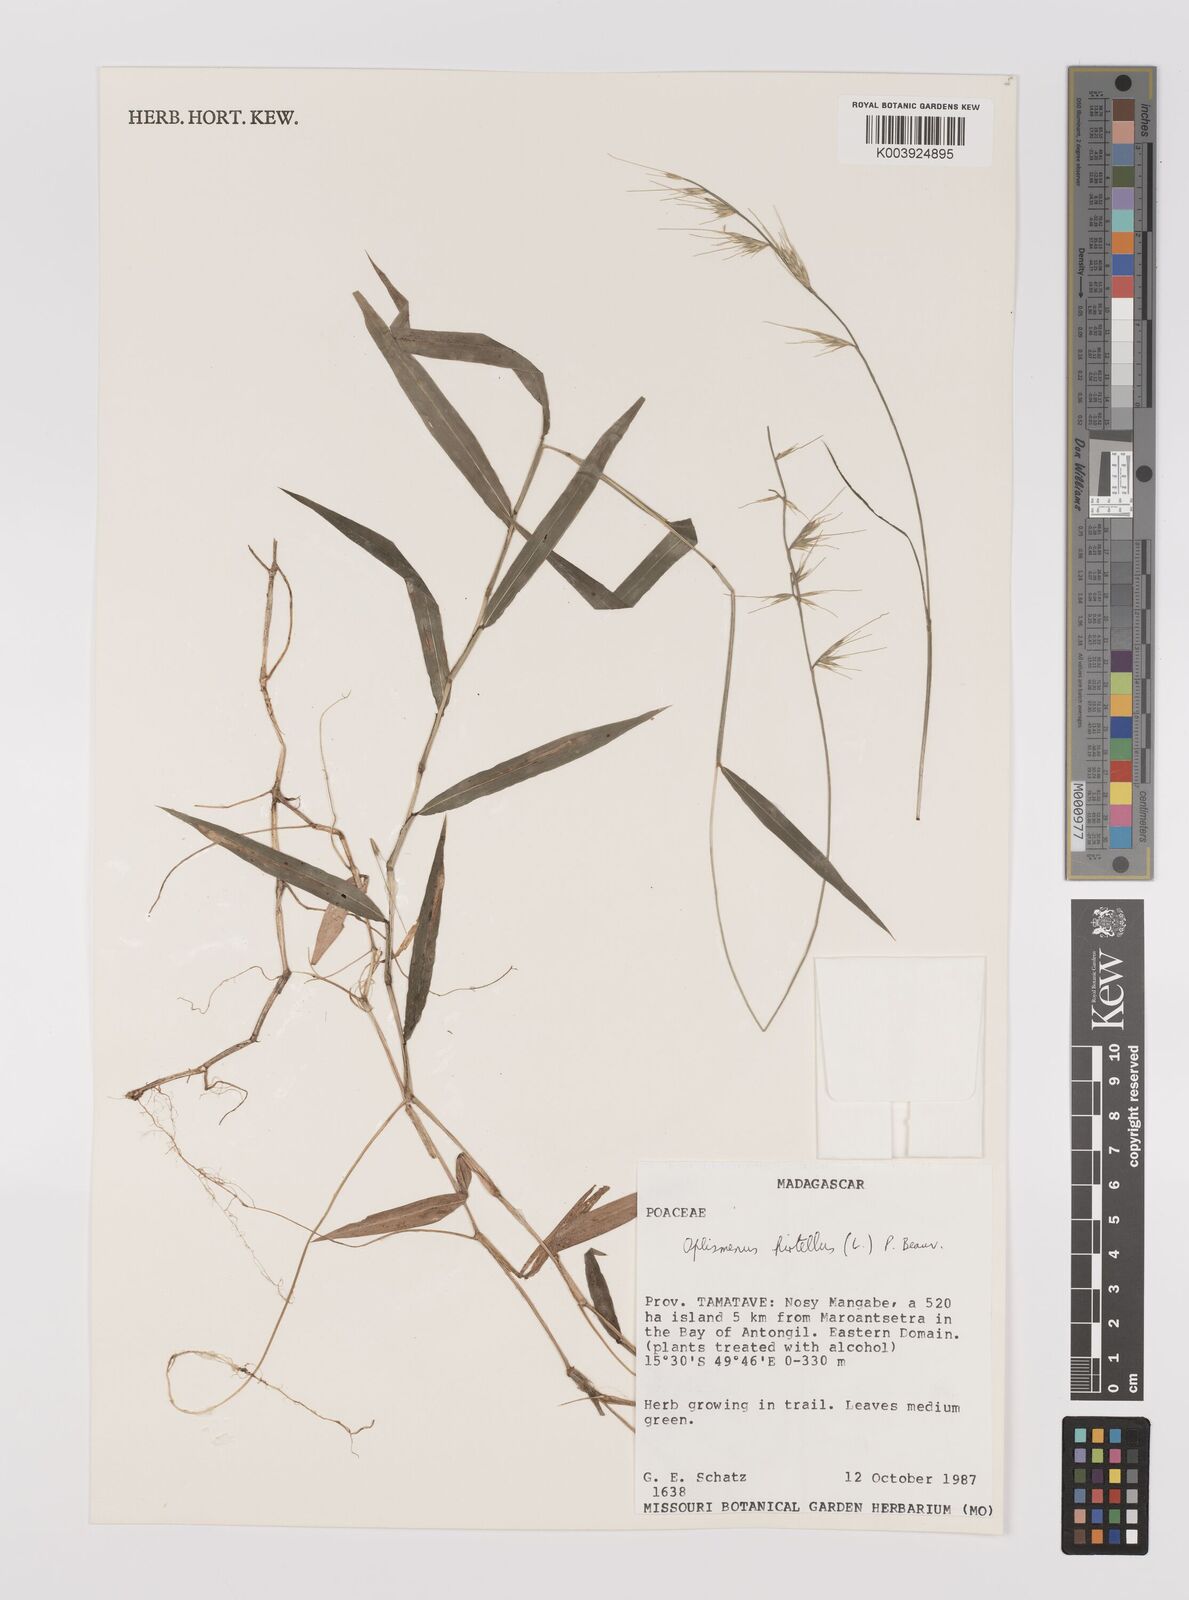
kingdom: Plantae
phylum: Tracheophyta
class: Liliopsida
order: Poales
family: Poaceae
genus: Oplismenus
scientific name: Oplismenus hirtellus
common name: Basketgrass
